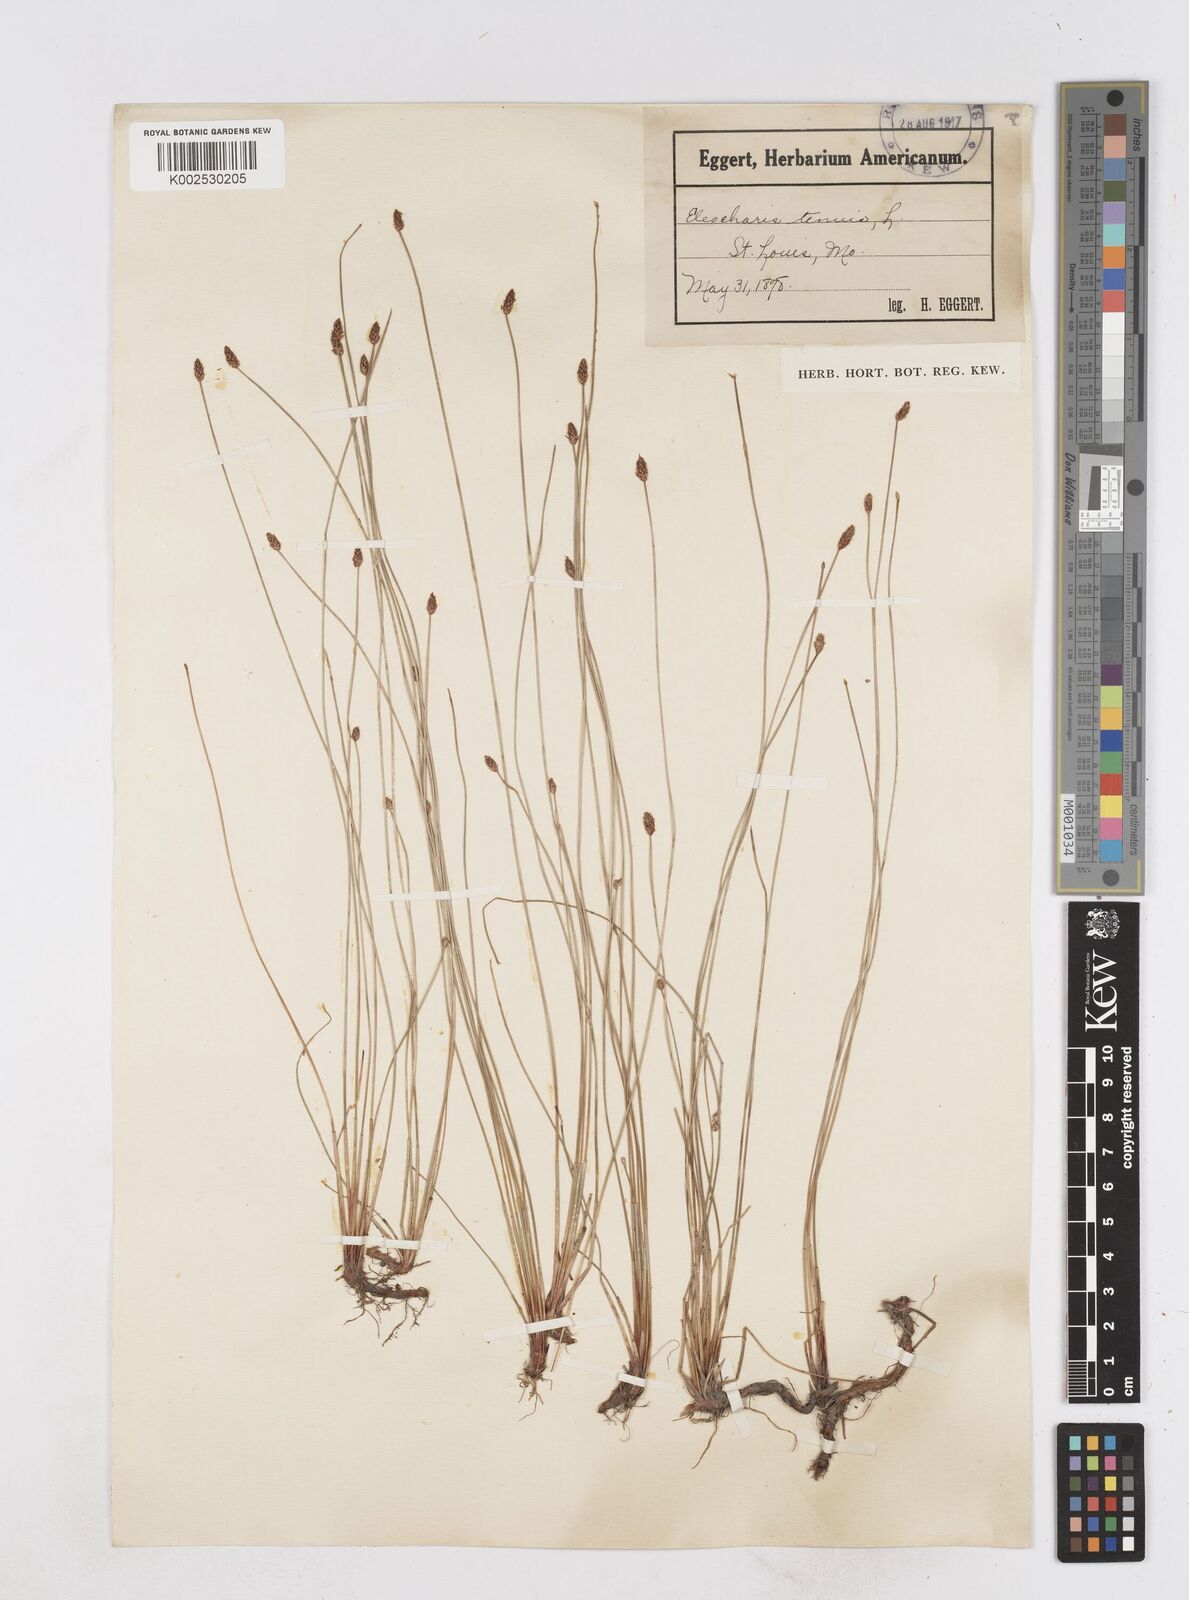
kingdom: Plantae
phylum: Tracheophyta
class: Liliopsida
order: Poales
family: Cyperaceae
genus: Eleocharis
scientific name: Eleocharis tenuis
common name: Dog's hair
